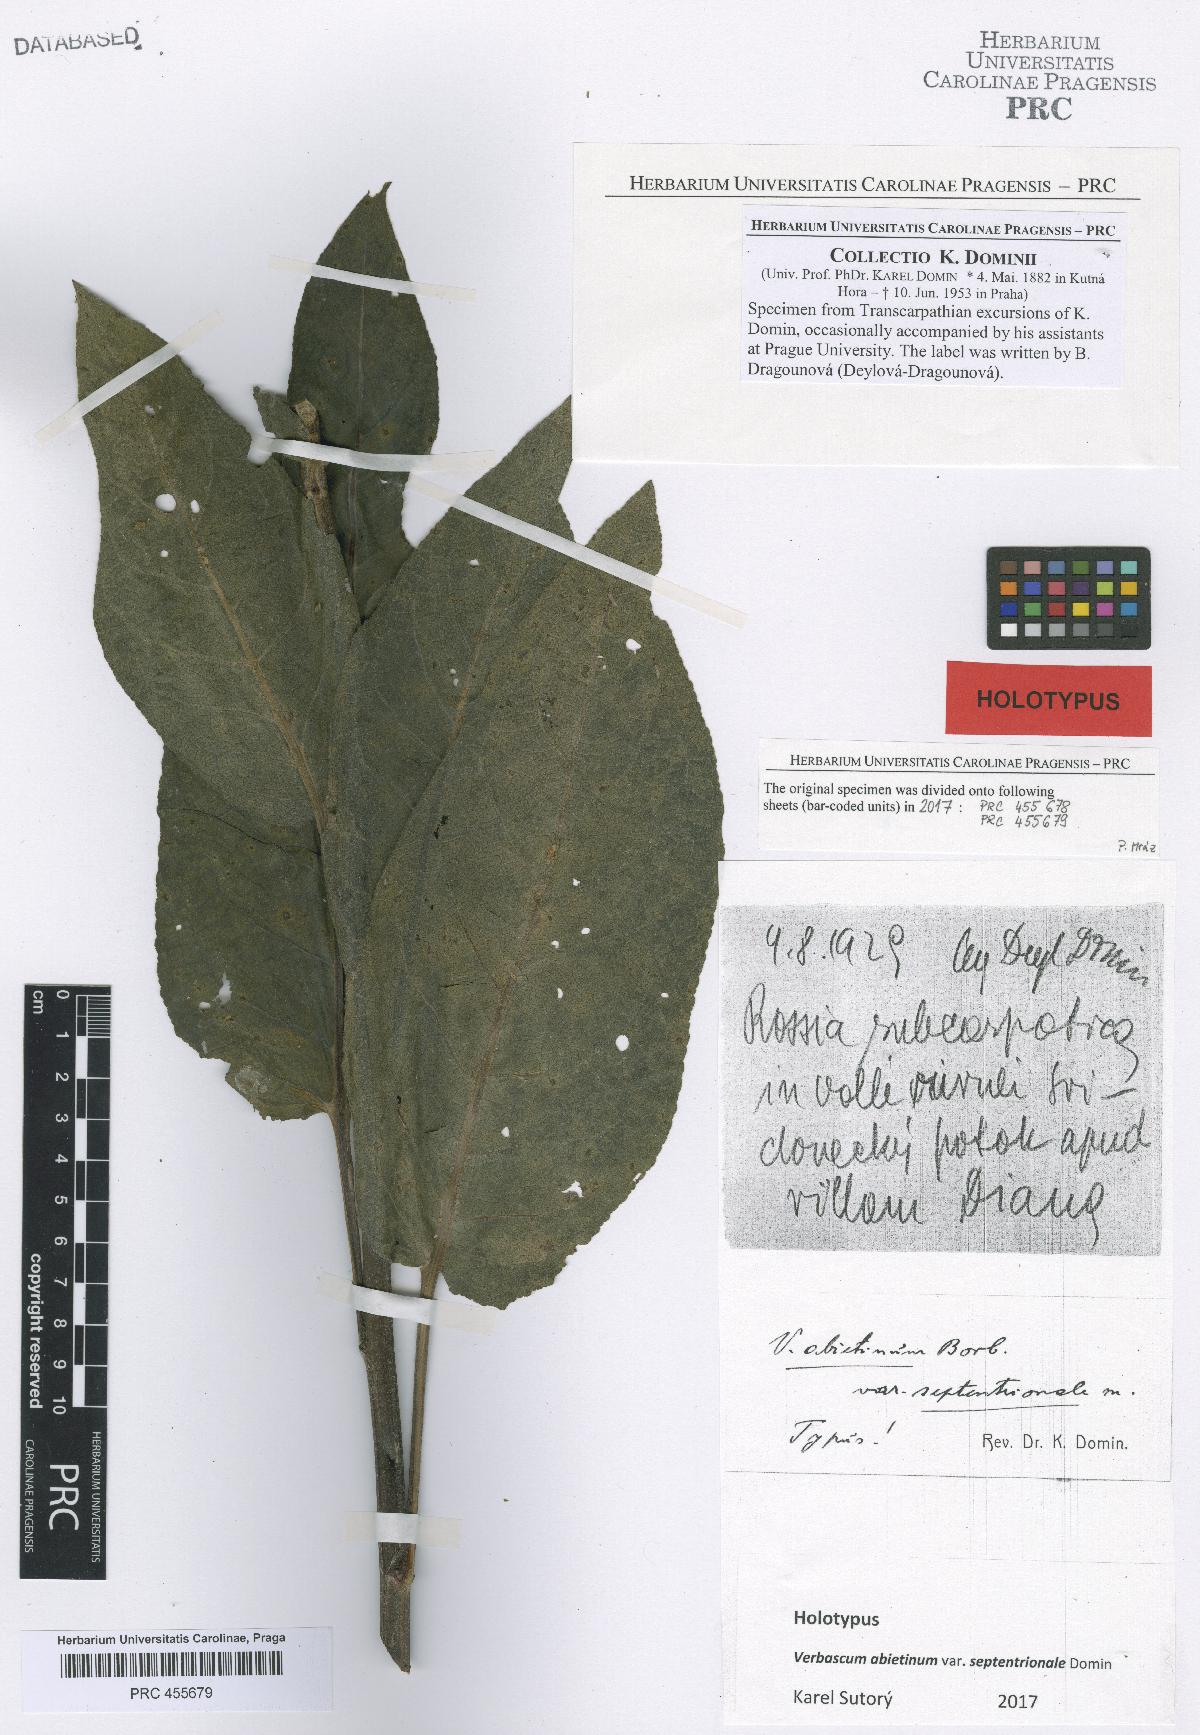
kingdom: Plantae
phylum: Tracheophyta
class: Magnoliopsida
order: Lamiales
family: Scrophulariaceae
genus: Verbascum
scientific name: Verbascum nigrum
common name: Dark mullein
